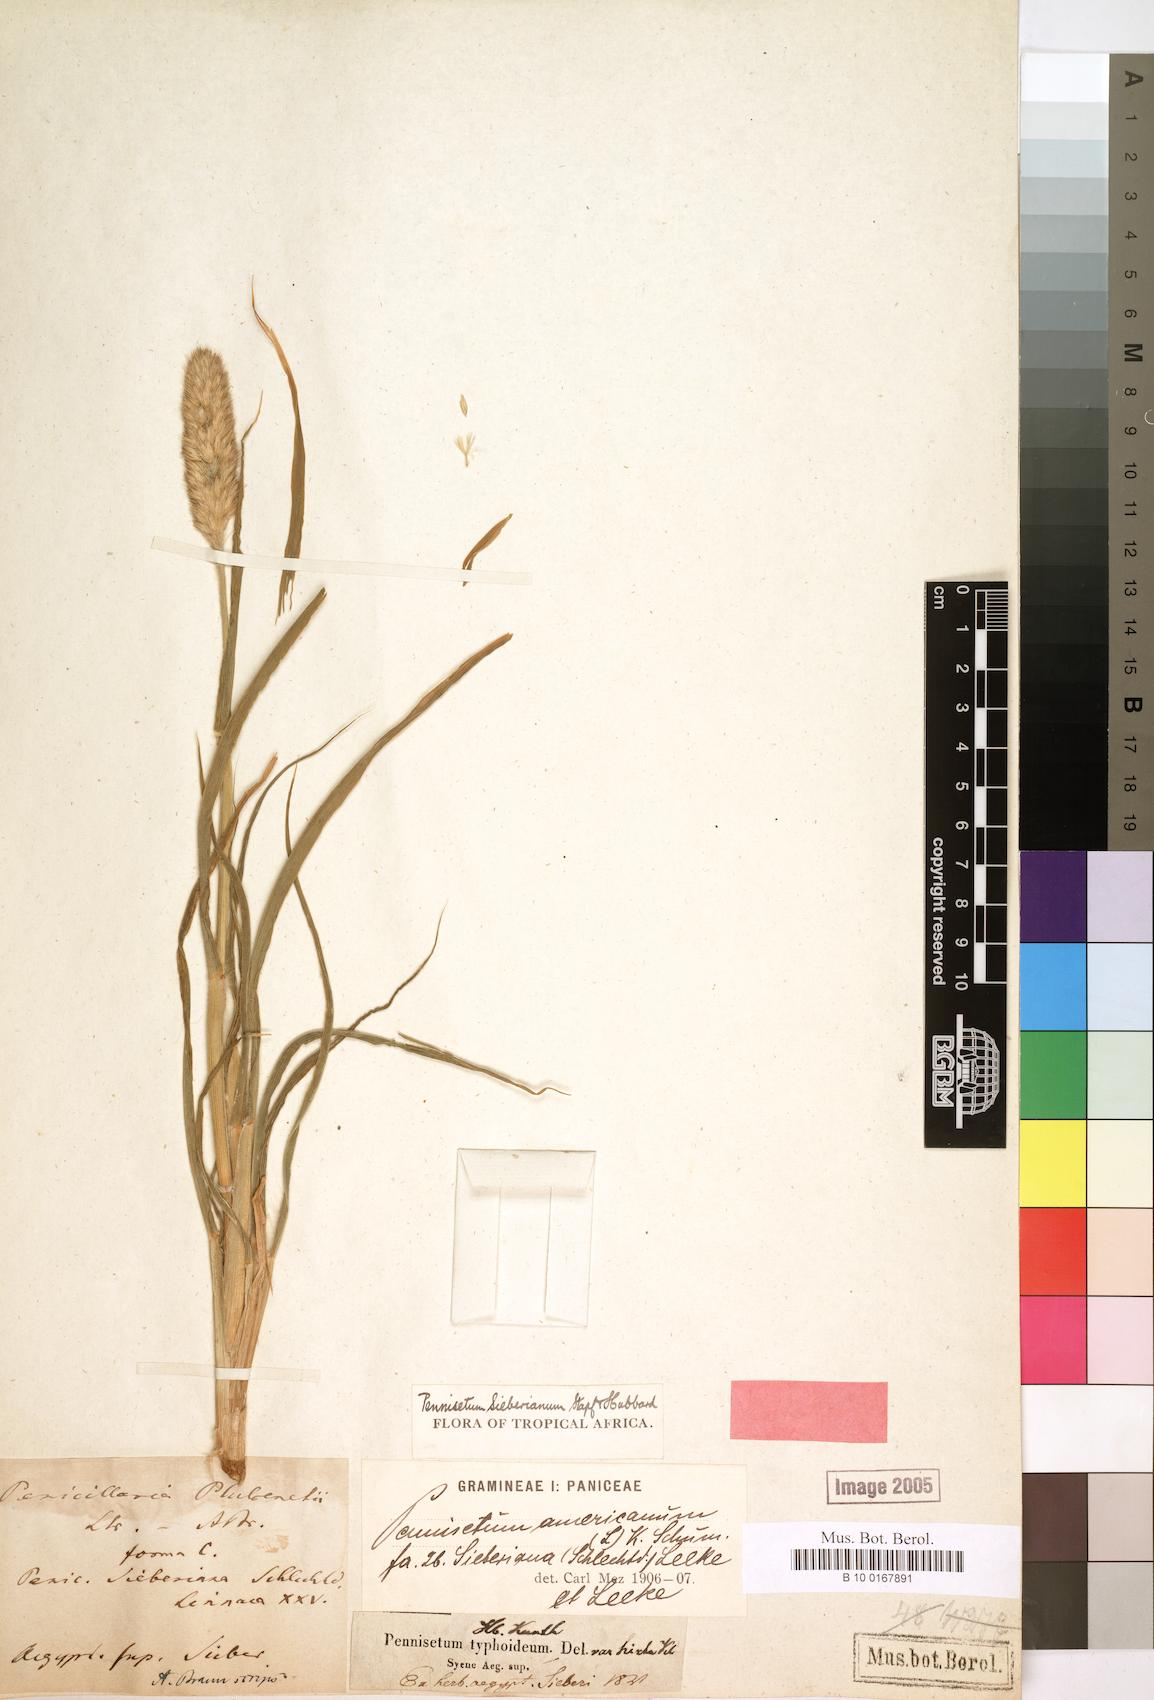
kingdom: Plantae
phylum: Tracheophyta
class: Liliopsida
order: Poales
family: Poaceae
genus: Cenchrus
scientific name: Cenchrus americanus
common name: Pearl millet
